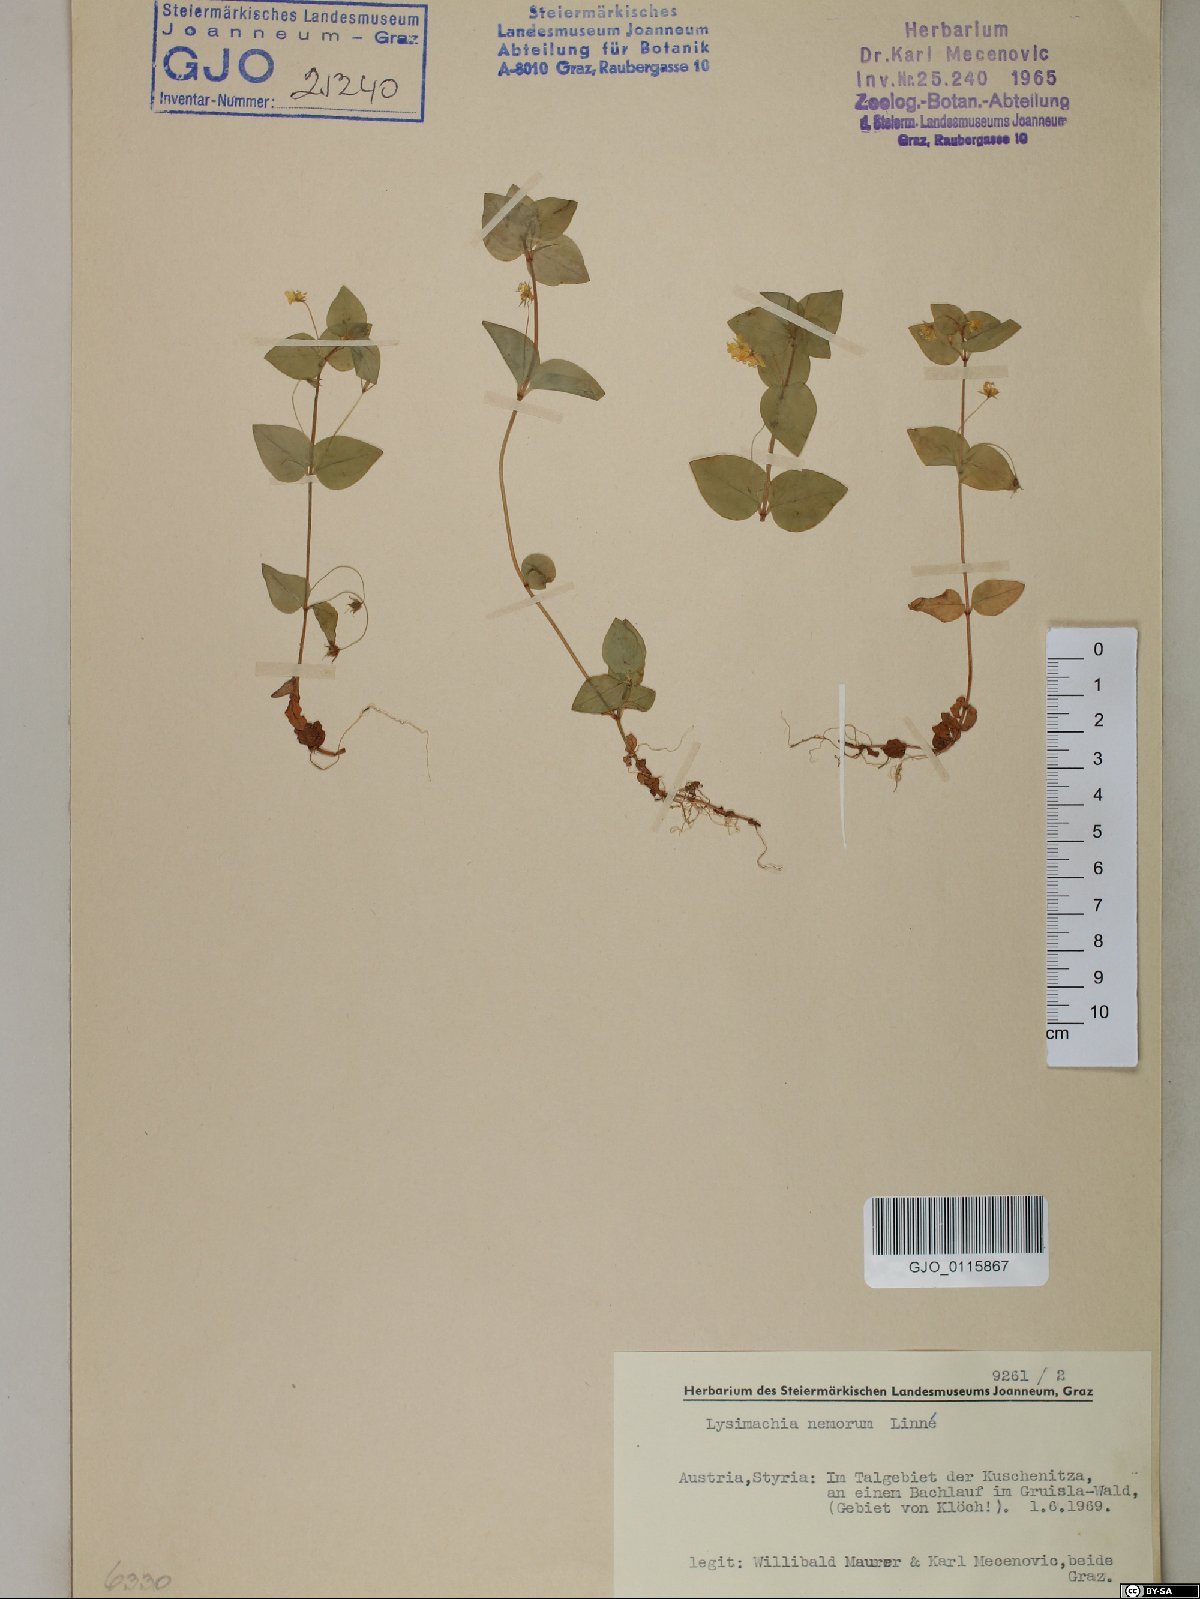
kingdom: Plantae
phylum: Tracheophyta
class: Magnoliopsida
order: Ericales
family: Primulaceae
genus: Lysimachia
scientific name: Lysimachia nemorum
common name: Yellow pimpernel
